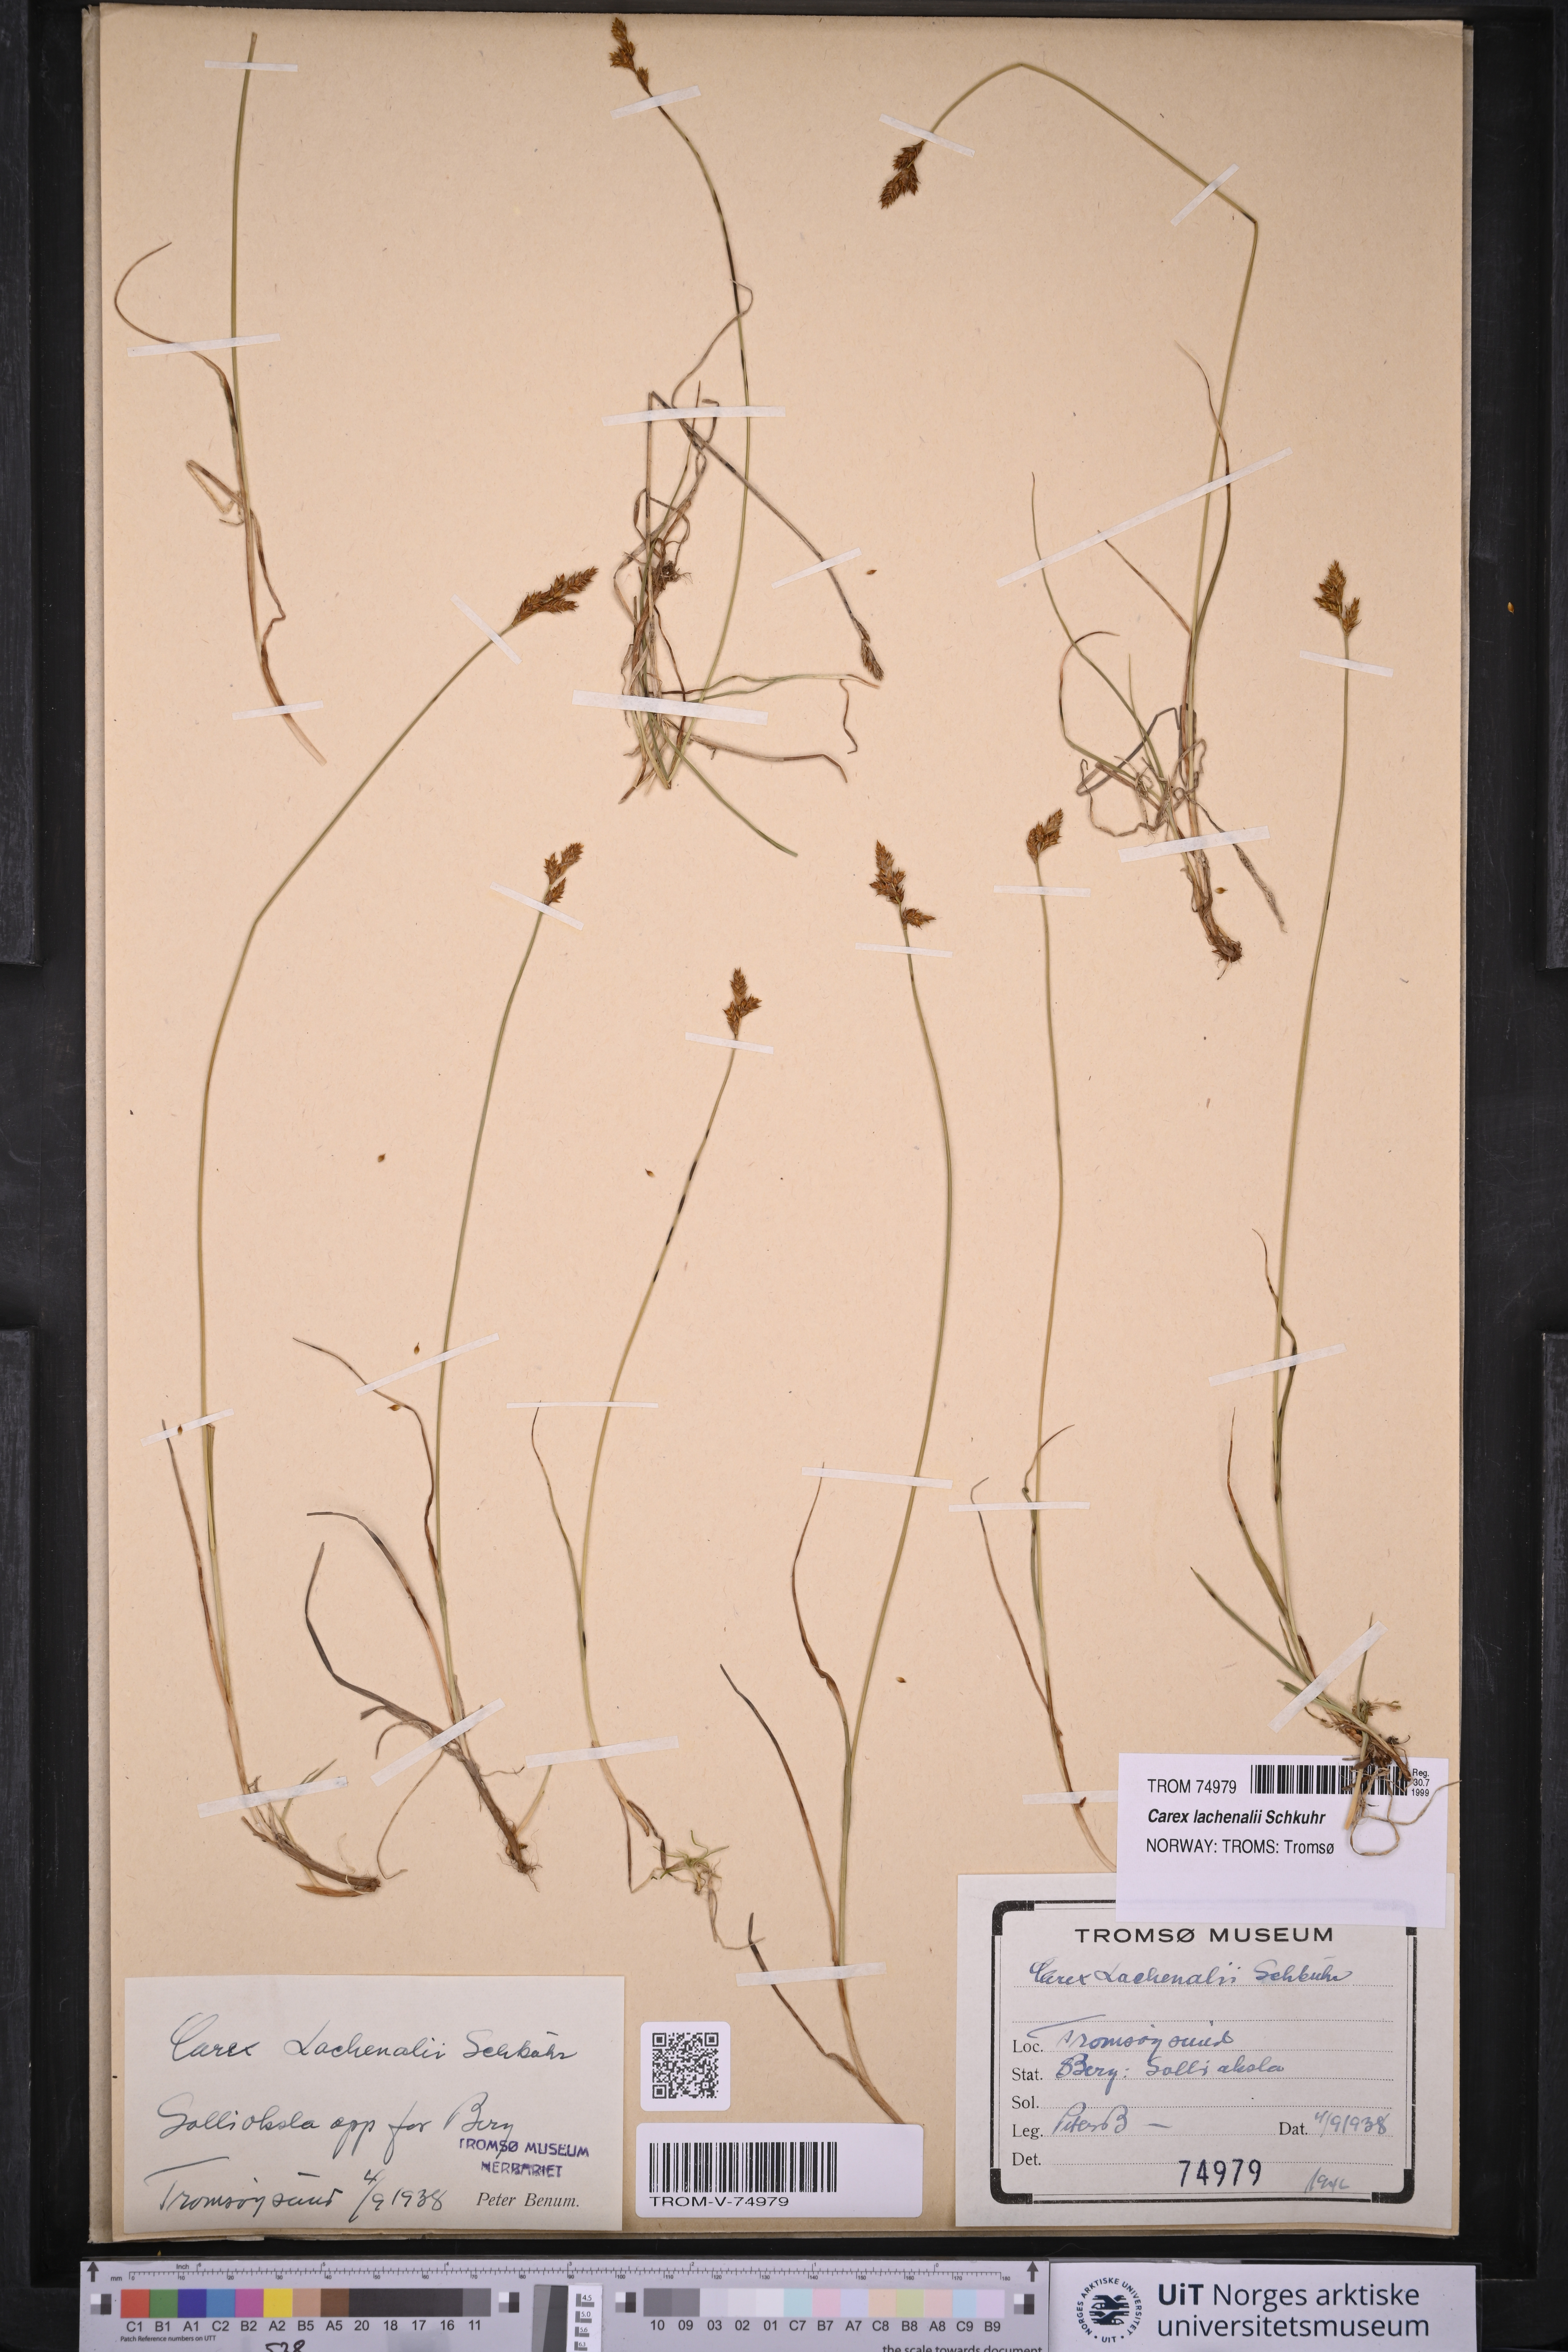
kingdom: Plantae
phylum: Tracheophyta
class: Liliopsida
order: Poales
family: Cyperaceae
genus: Carex
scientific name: Carex lachenalii
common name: Hare's-foot sedge
